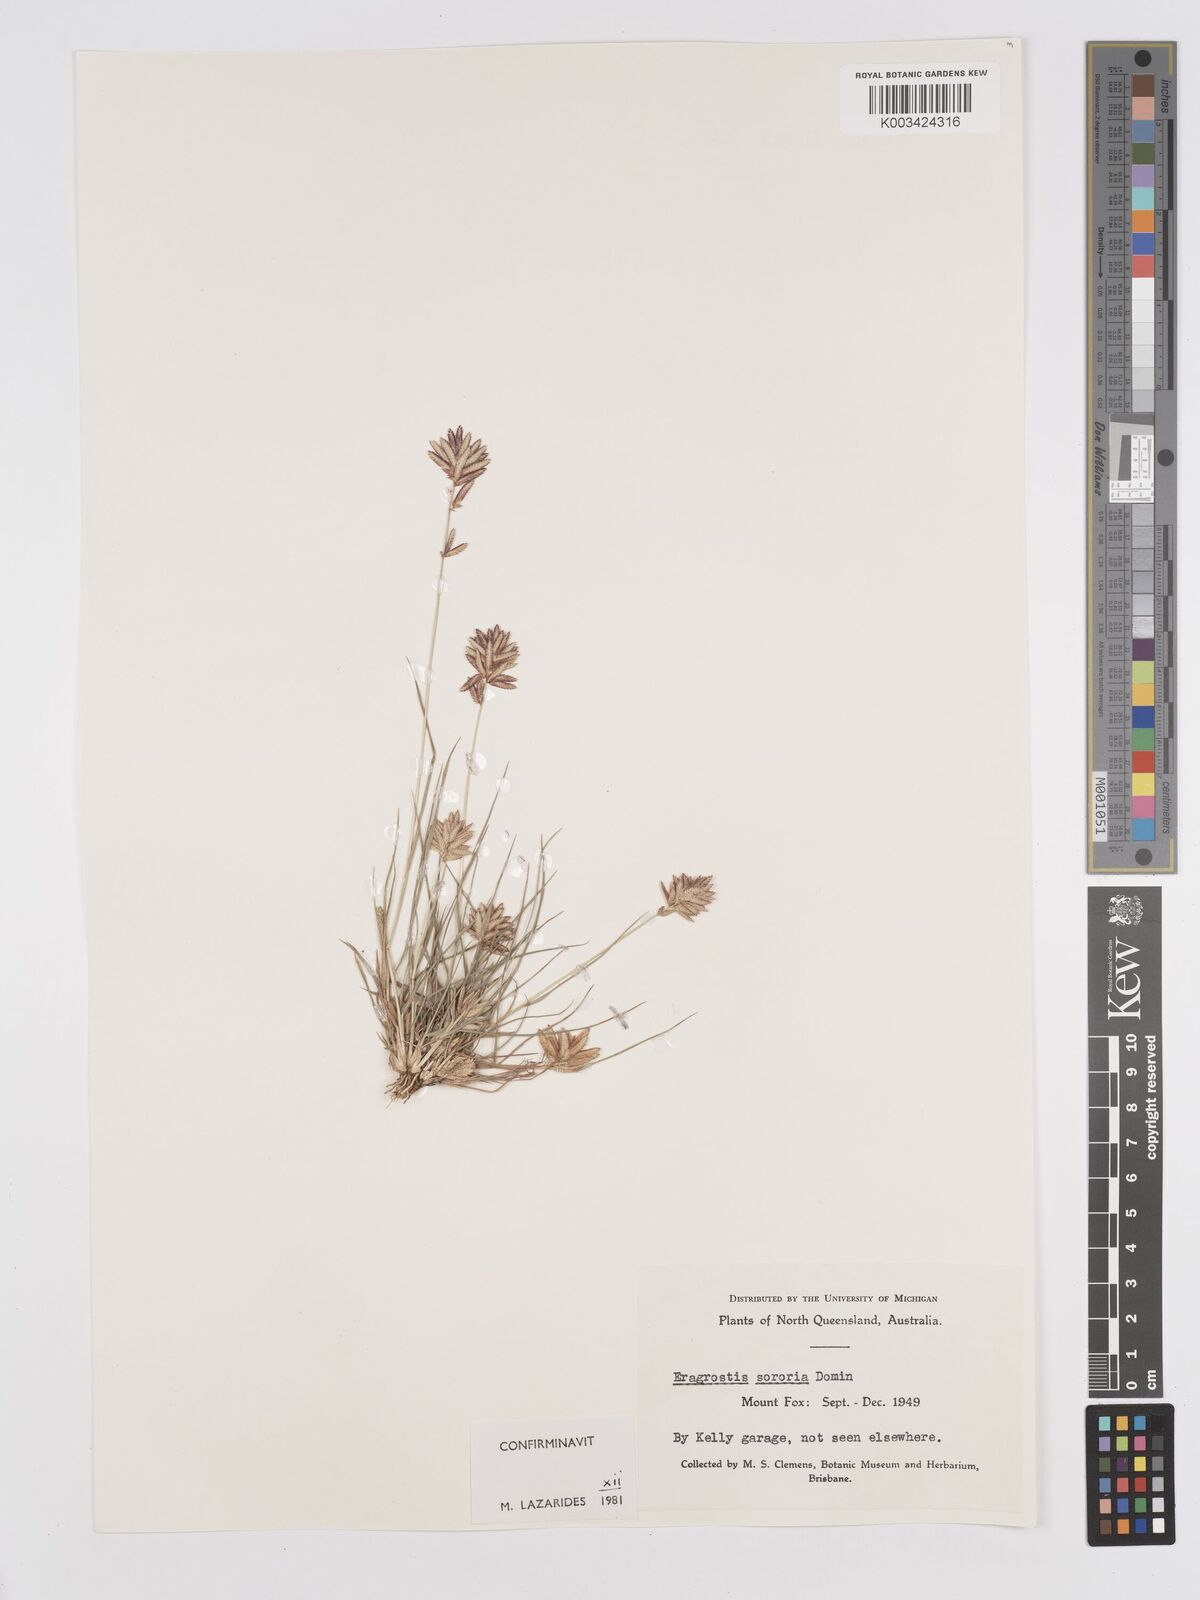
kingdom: Plantae
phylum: Tracheophyta
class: Liliopsida
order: Poales
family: Poaceae
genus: Eragrostis
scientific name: Eragrostis sororia
